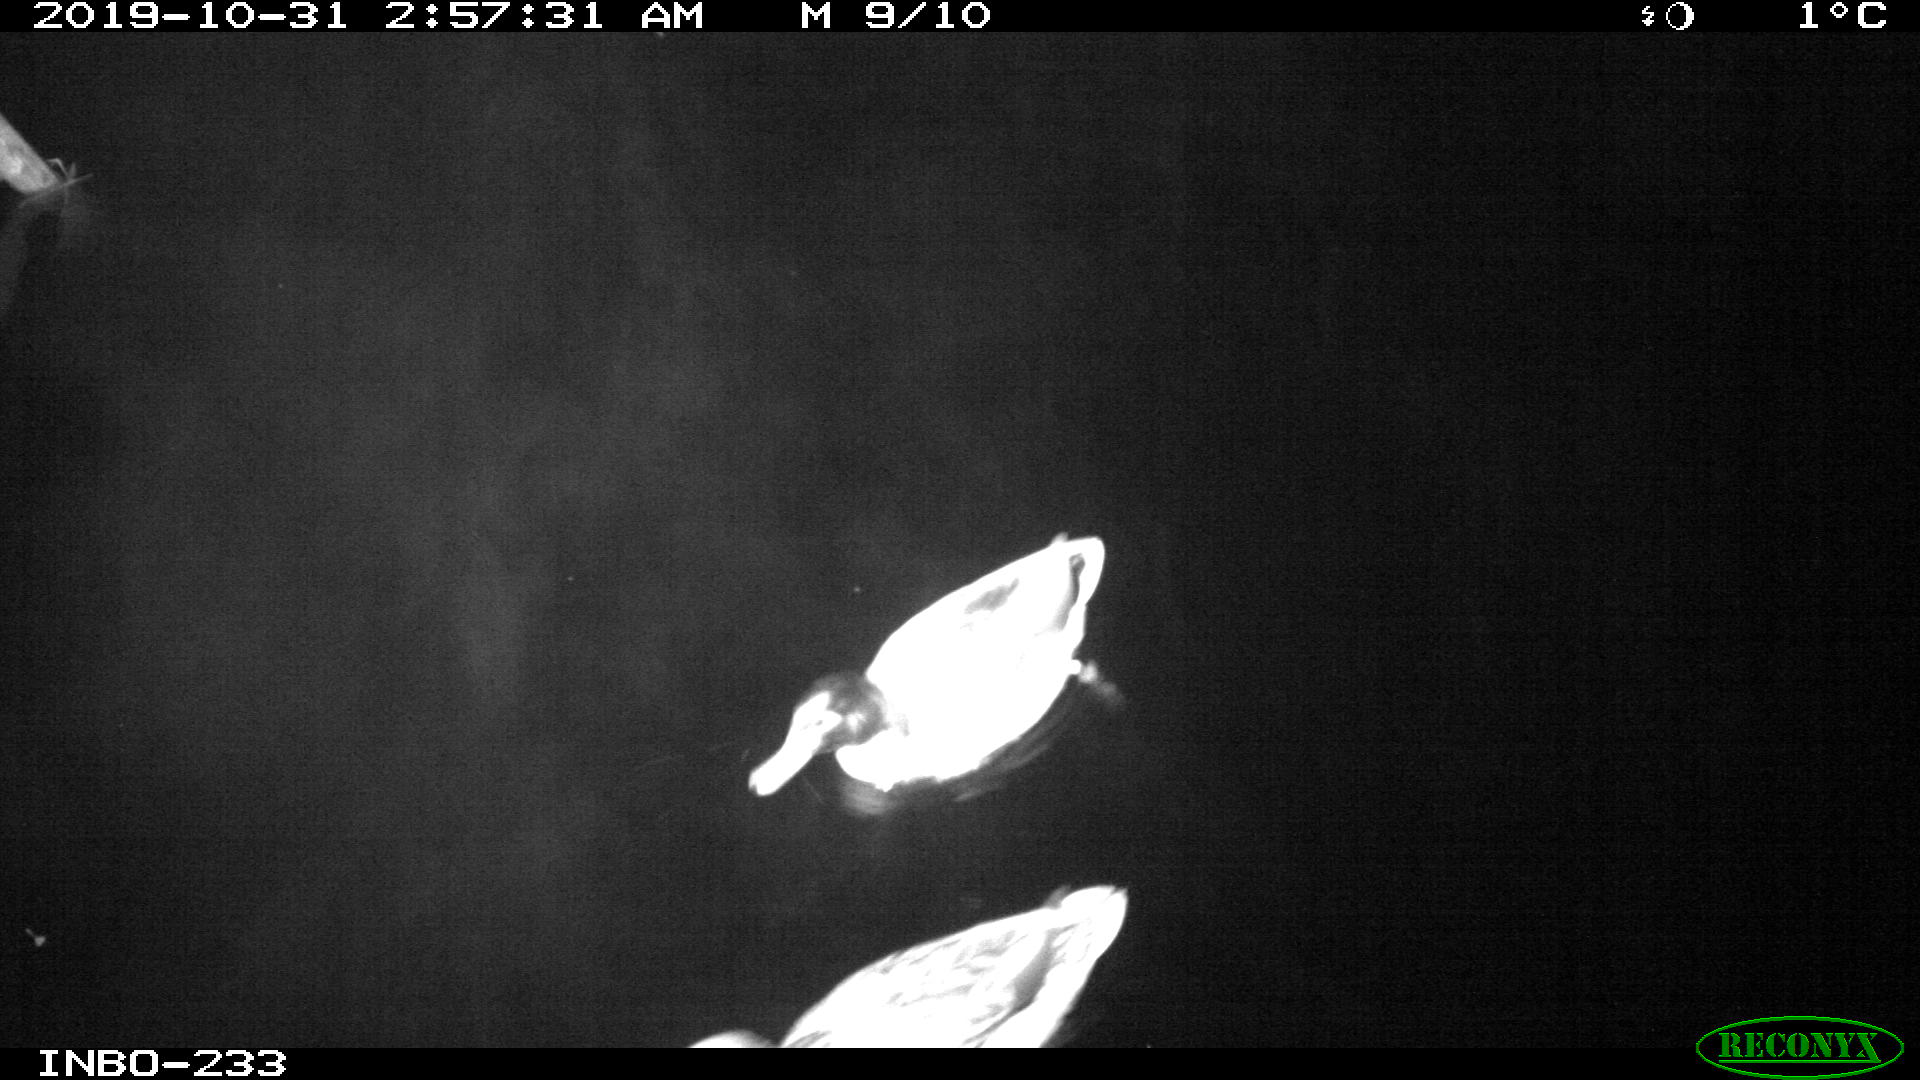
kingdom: Animalia
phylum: Chordata
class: Aves
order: Anseriformes
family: Anatidae
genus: Anas
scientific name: Anas platyrhynchos
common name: Mallard
